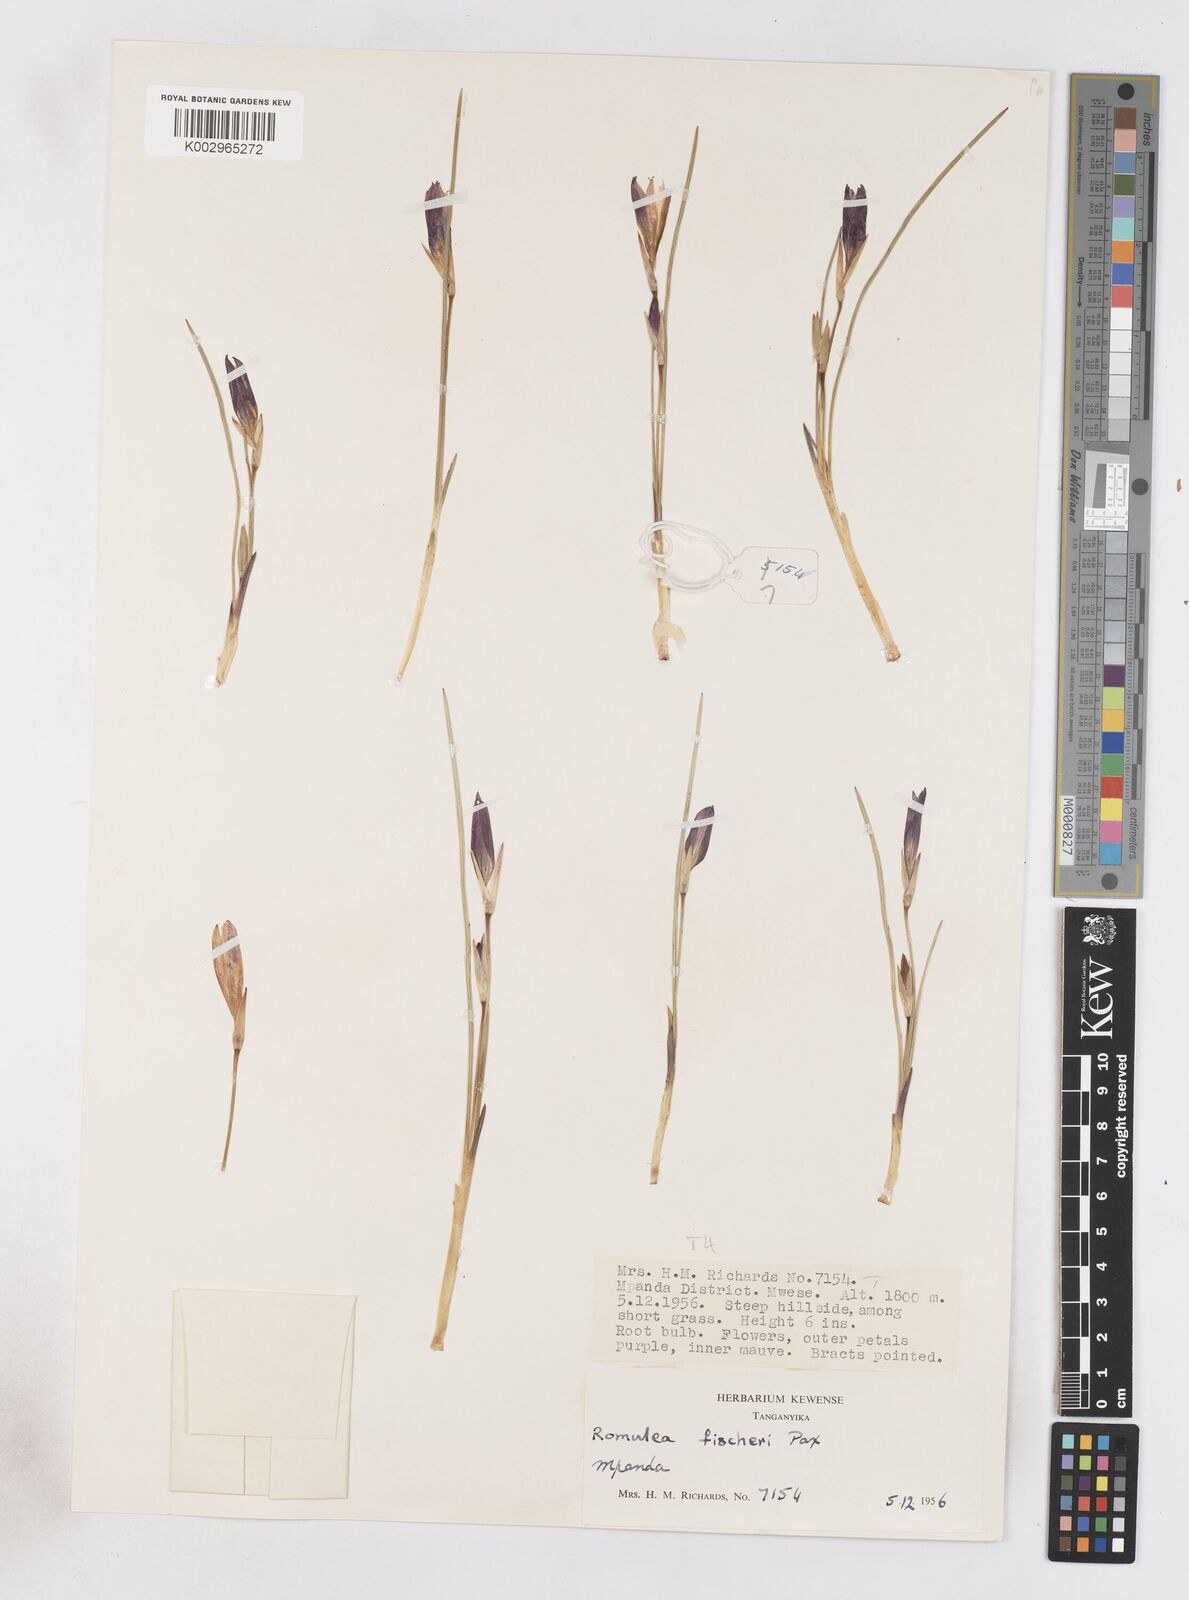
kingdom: Plantae
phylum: Tracheophyta
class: Liliopsida
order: Asparagales
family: Iridaceae
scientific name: Iridaceae
